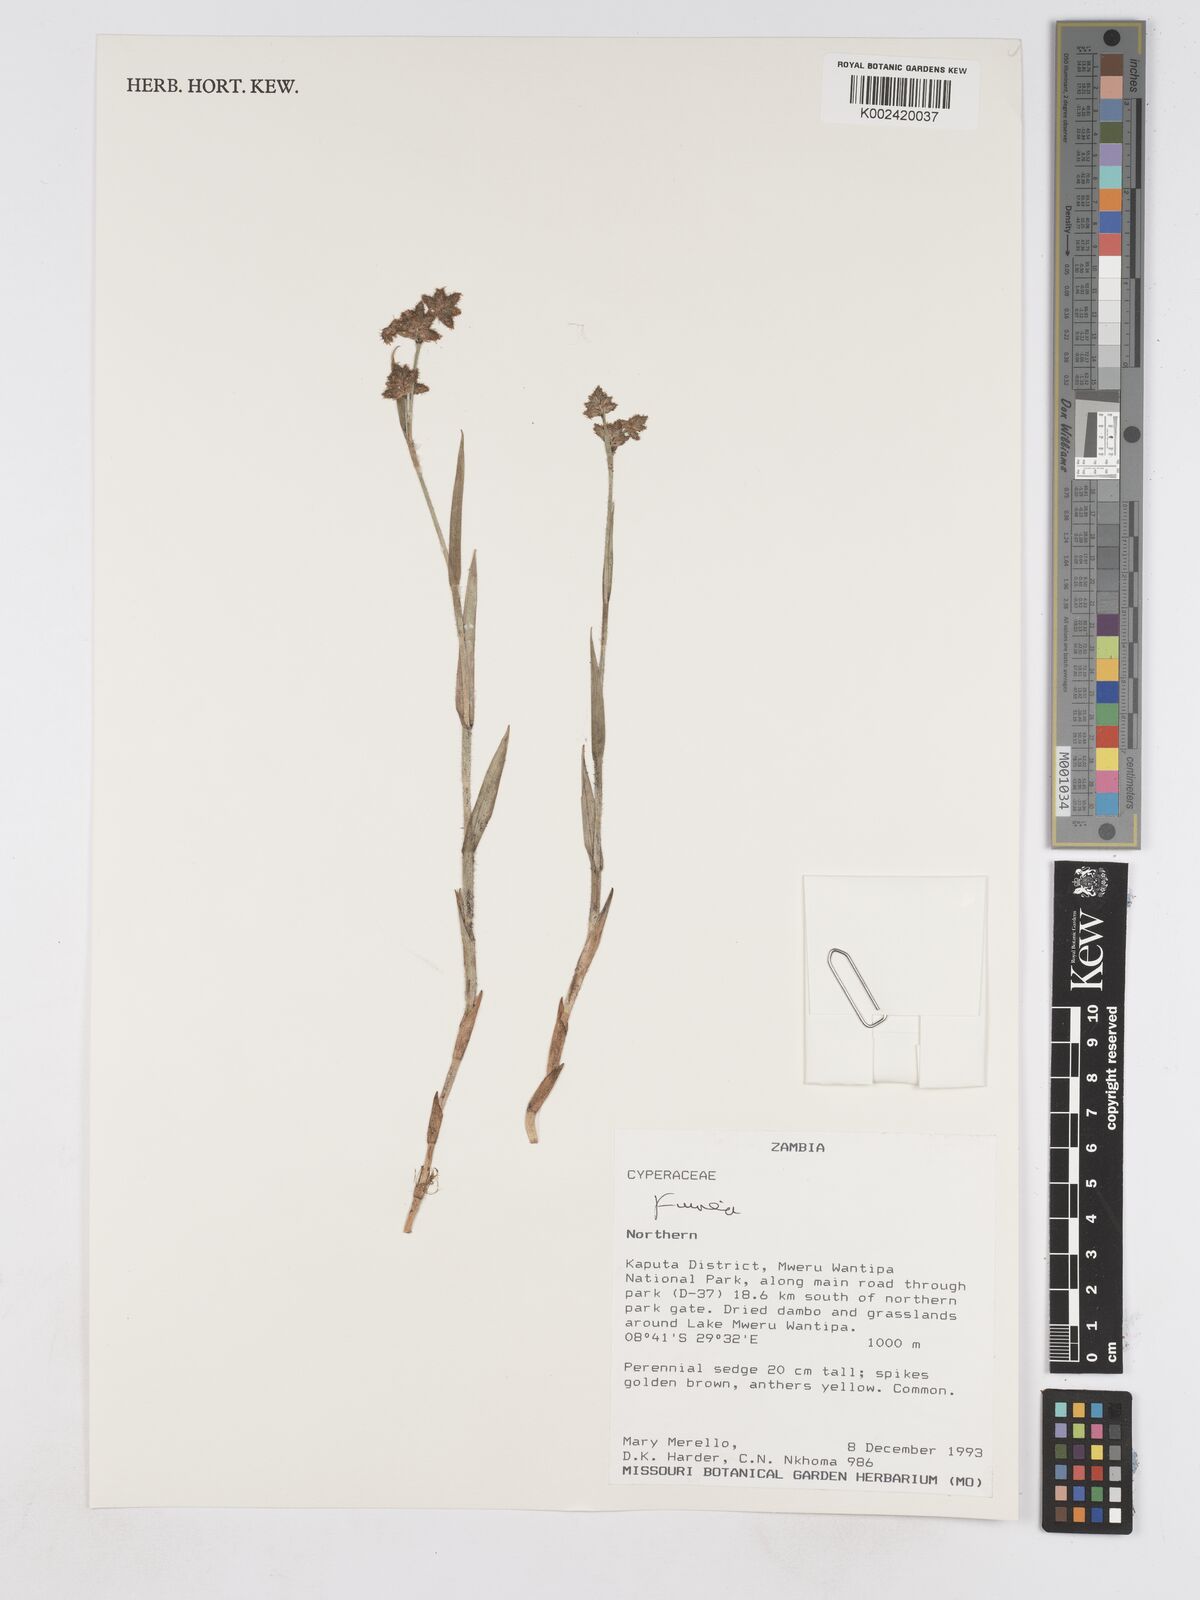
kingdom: Plantae
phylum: Tracheophyta
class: Liliopsida
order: Poales
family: Cyperaceae
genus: Fuirena
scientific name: Fuirena
